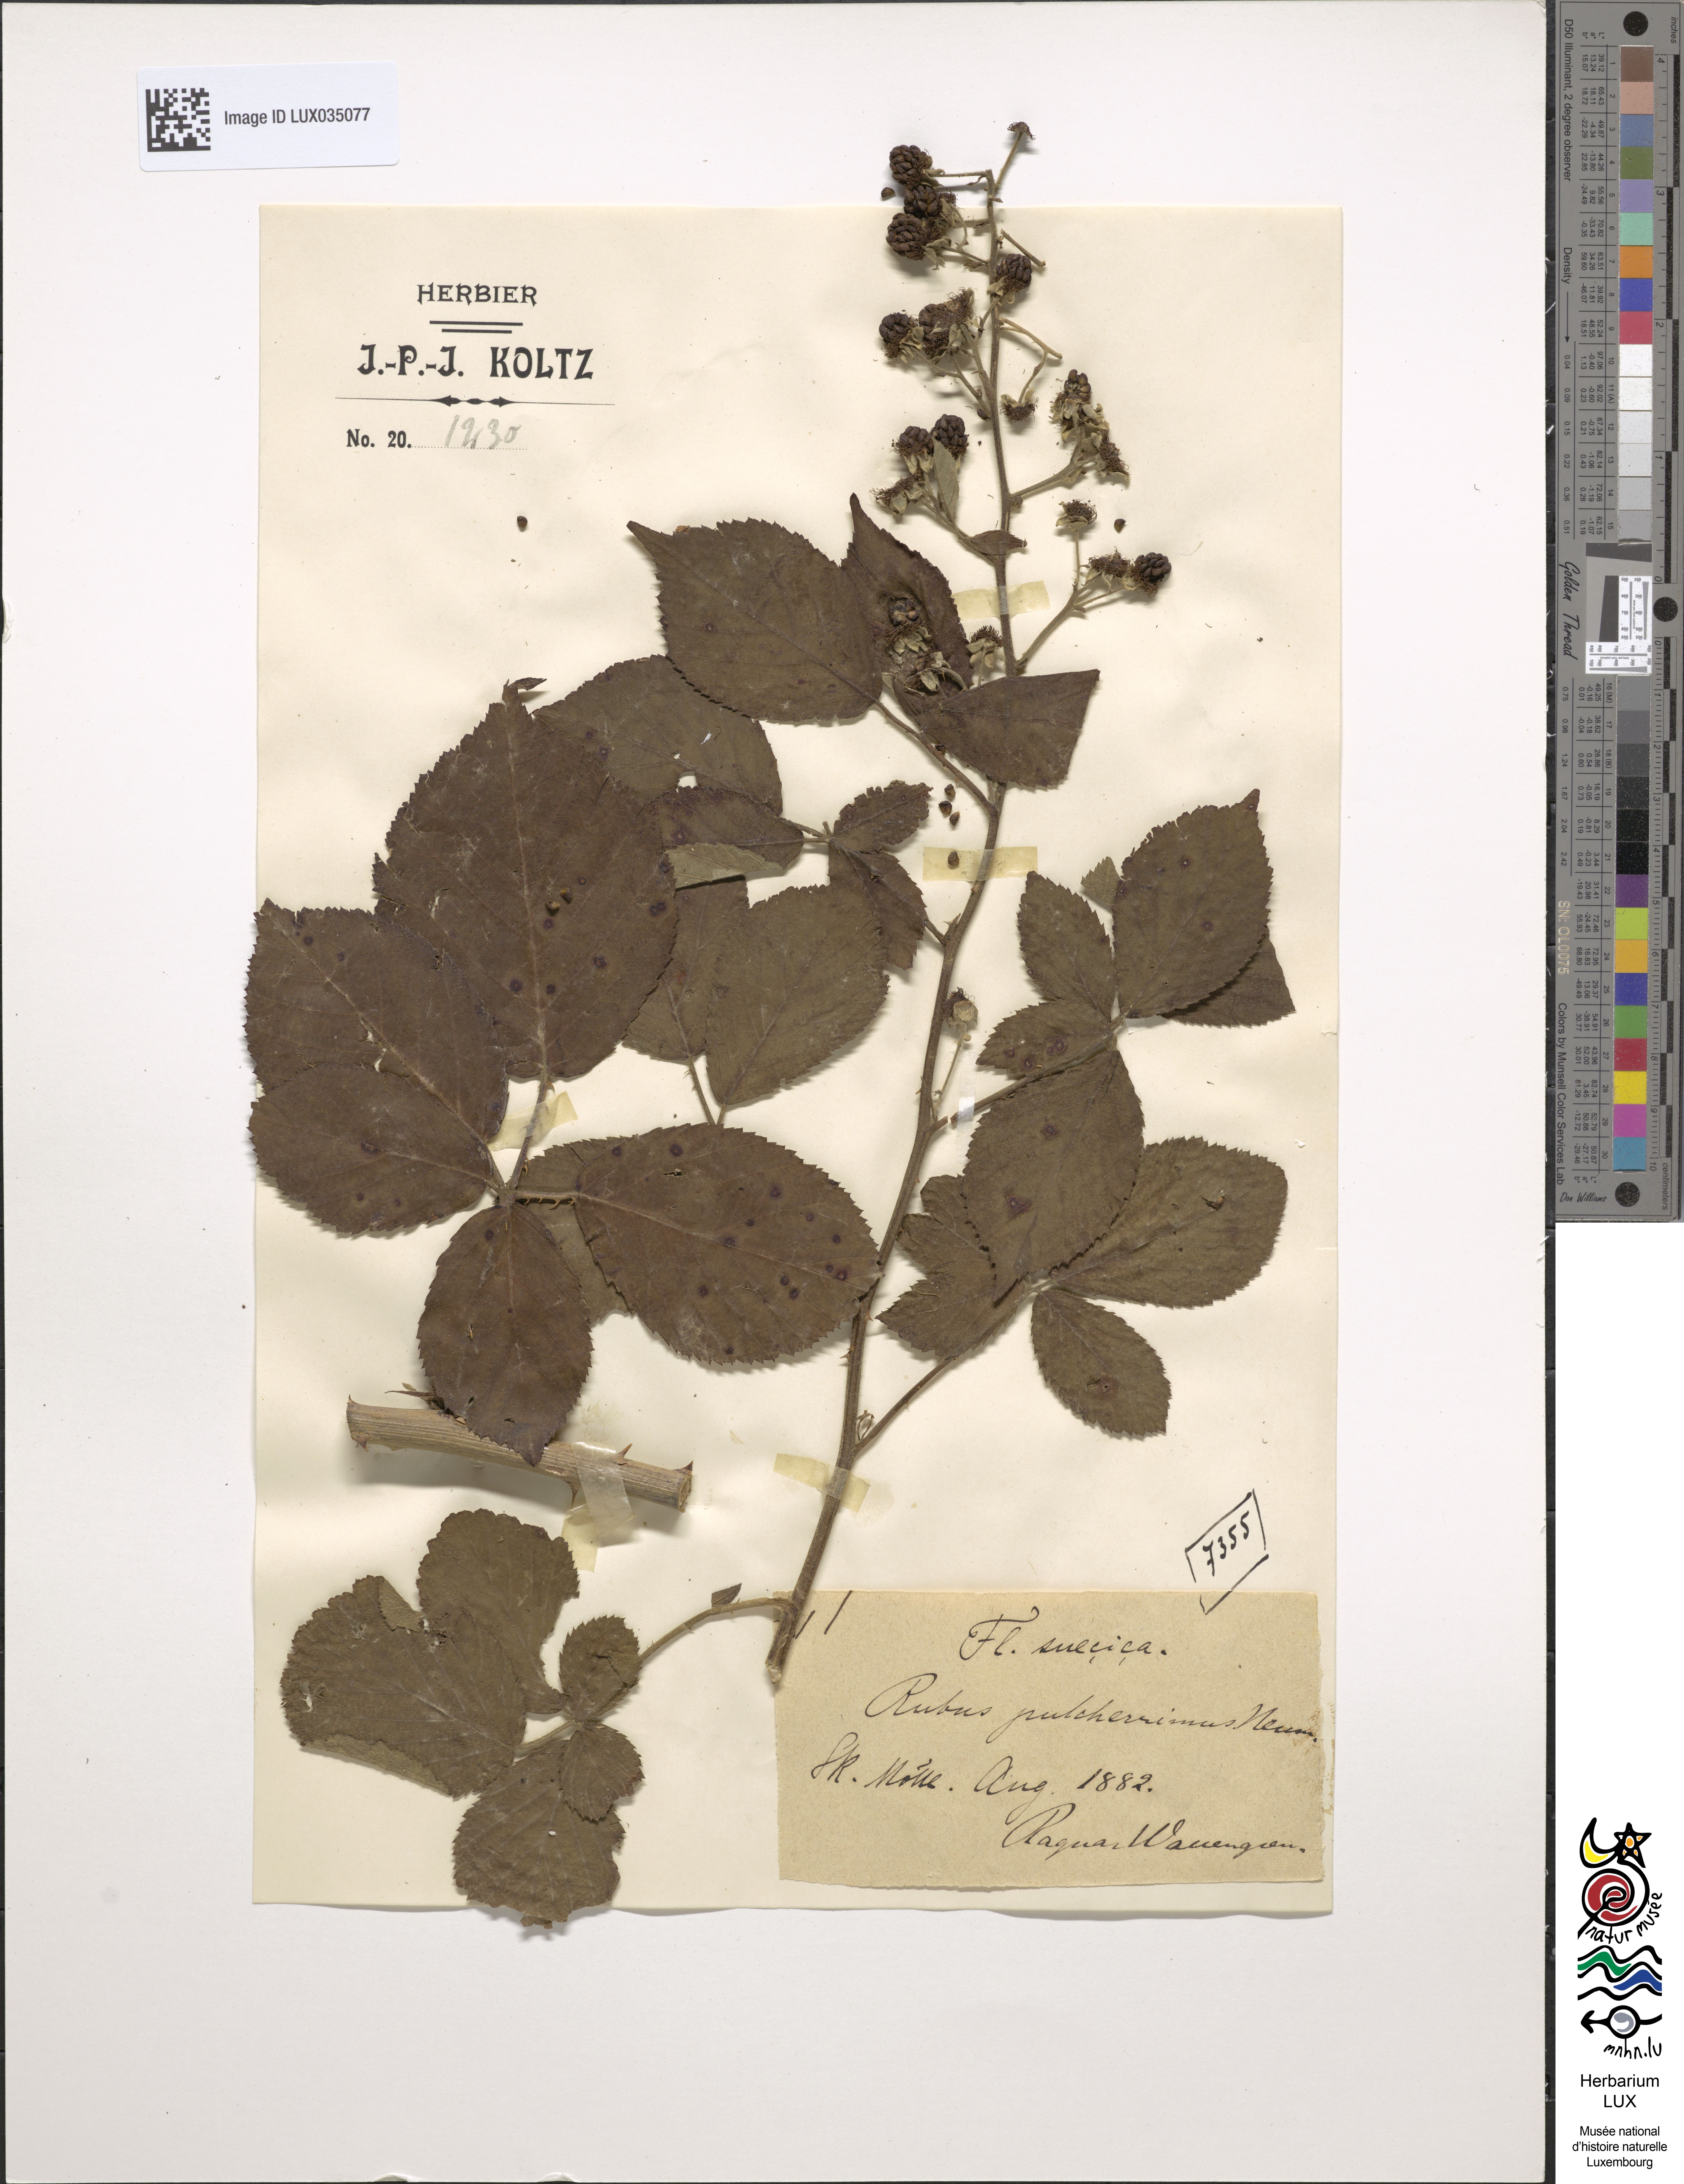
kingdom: Plantae
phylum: Tracheophyta
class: Magnoliopsida
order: Rosales
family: Rosaceae
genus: Rubus
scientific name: Rubus polyanthemus
